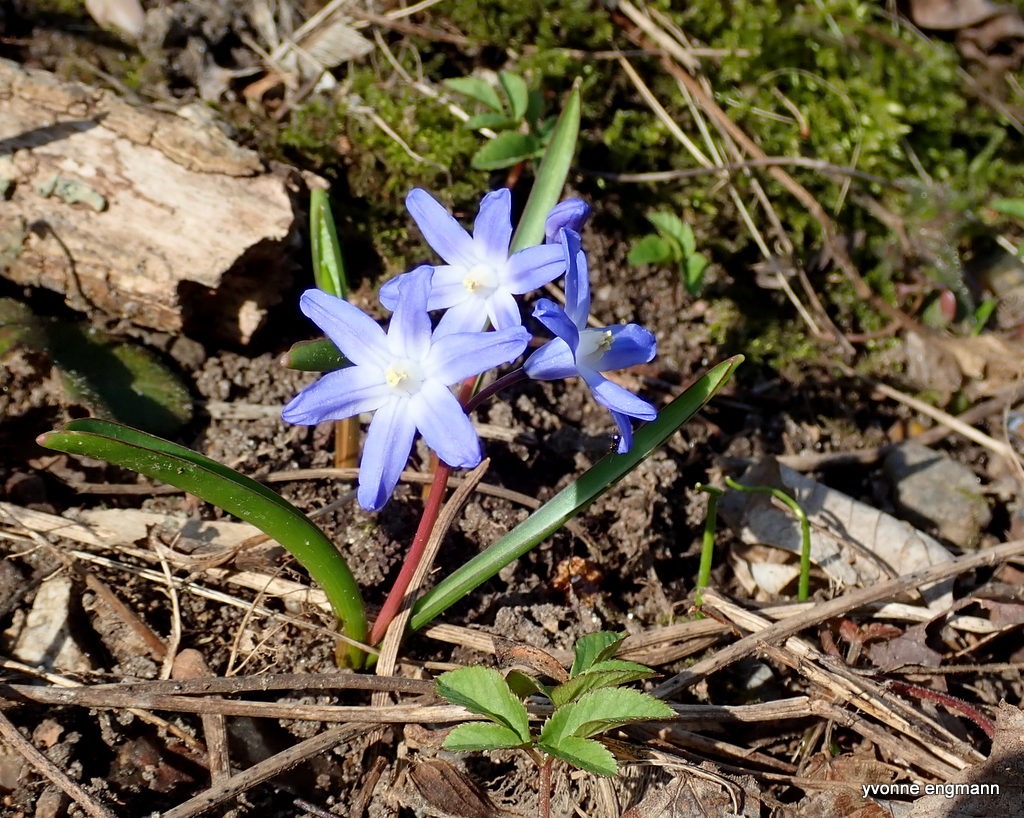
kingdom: Plantae
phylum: Tracheophyta
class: Liliopsida
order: Asparagales
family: Asparagaceae
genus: Scilla
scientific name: Scilla luciliae
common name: Stor snepryd
